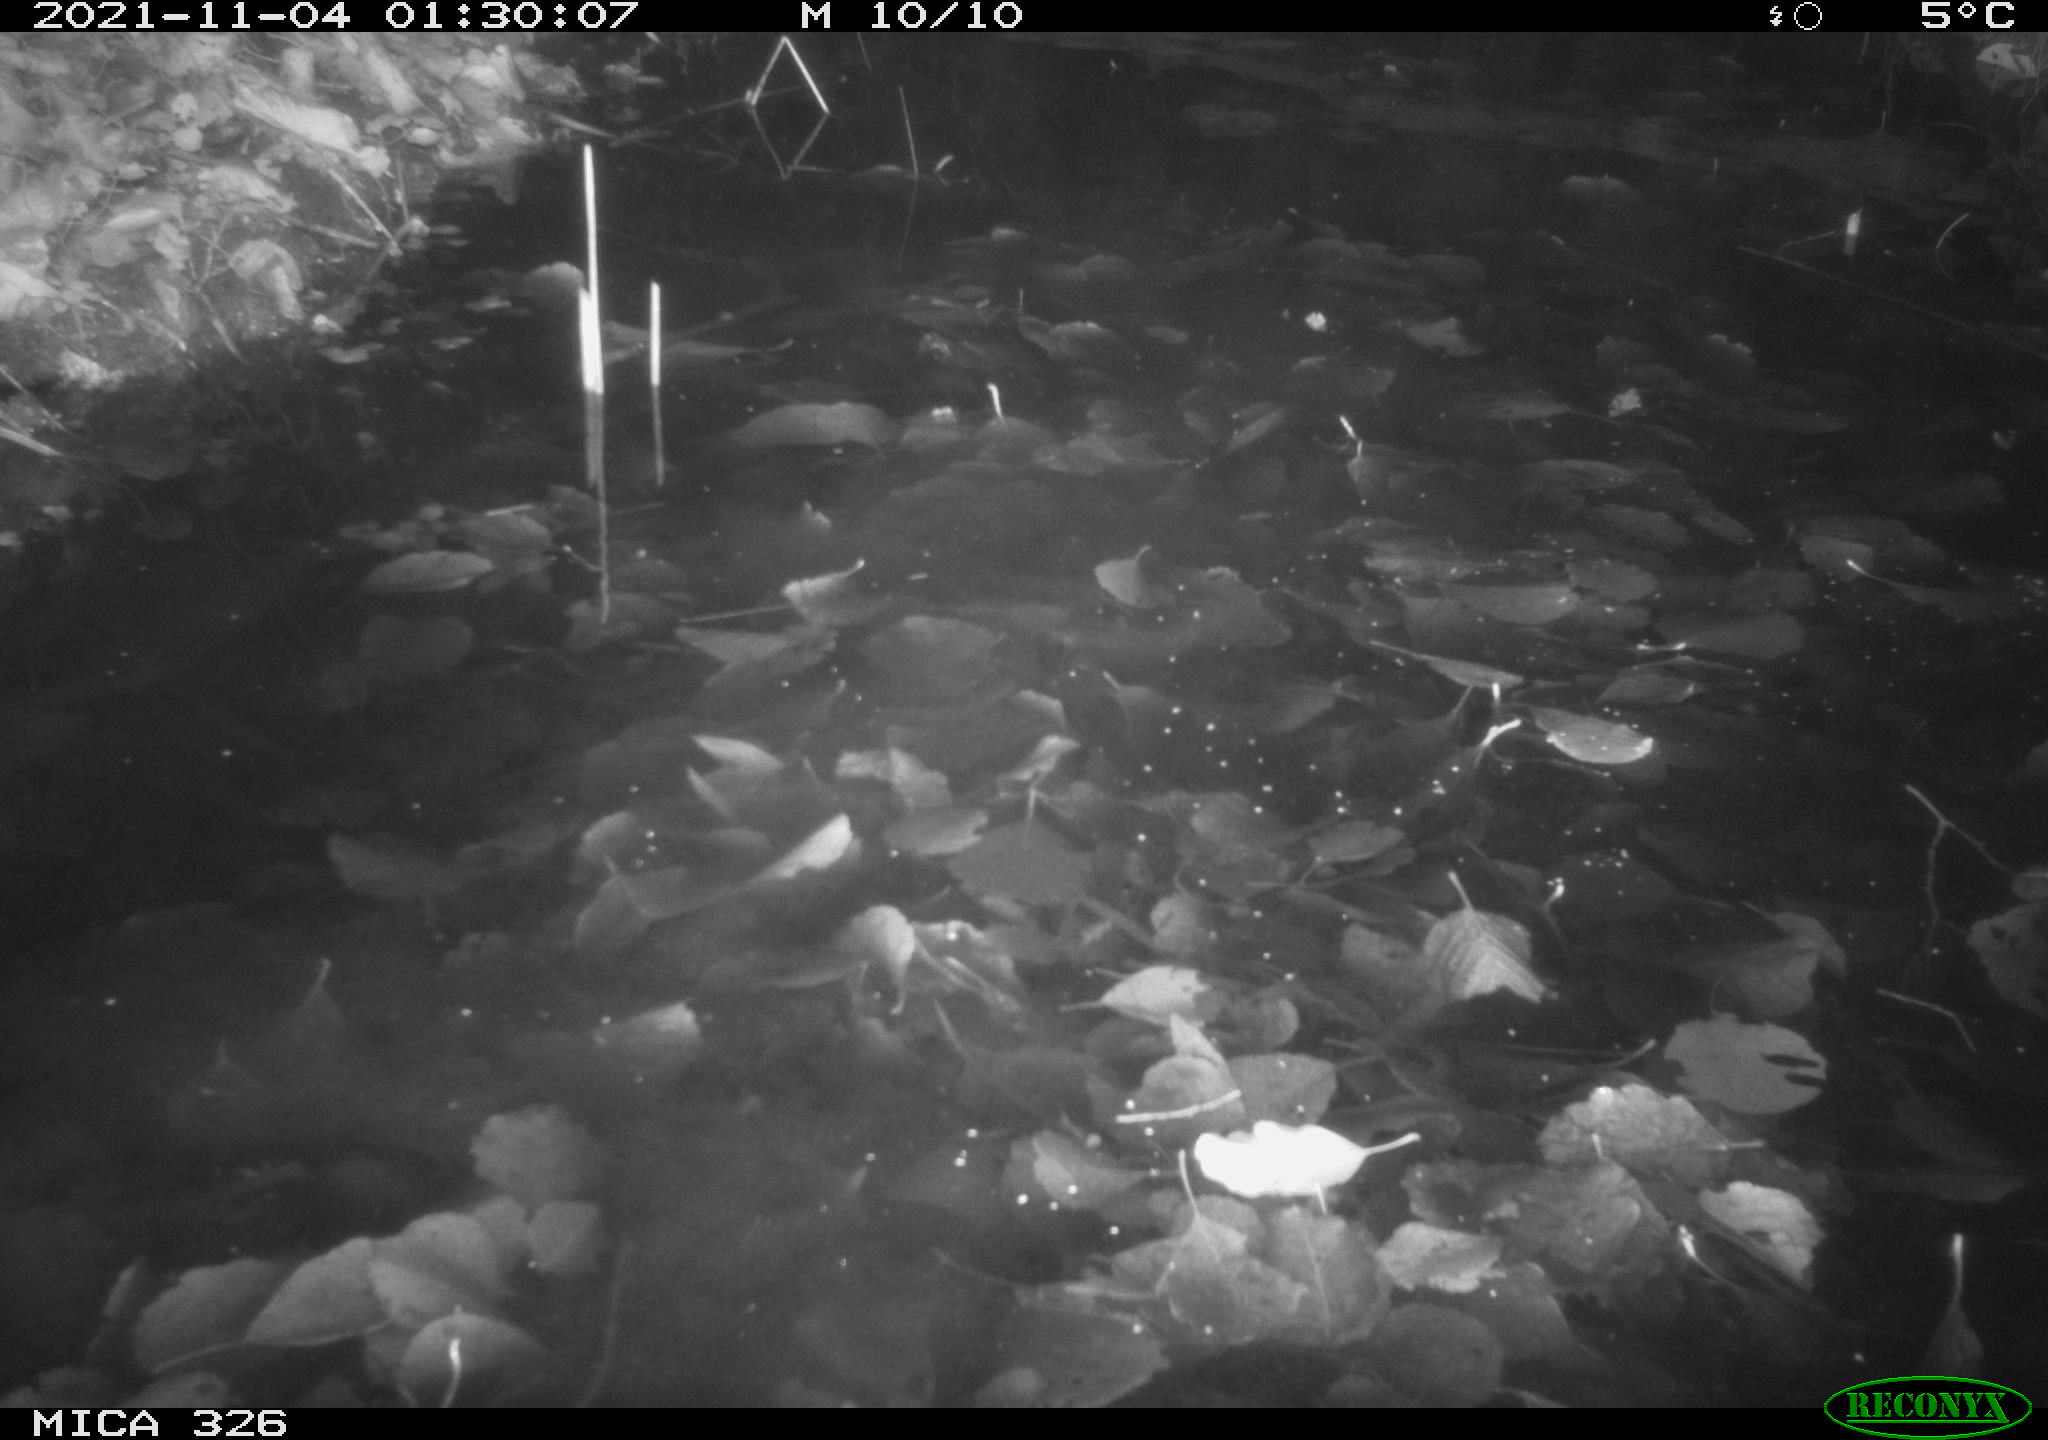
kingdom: Animalia
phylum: Chordata
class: Mammalia
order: Rodentia
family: Myocastoridae
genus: Myocastor
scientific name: Myocastor coypus
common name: Coypu
